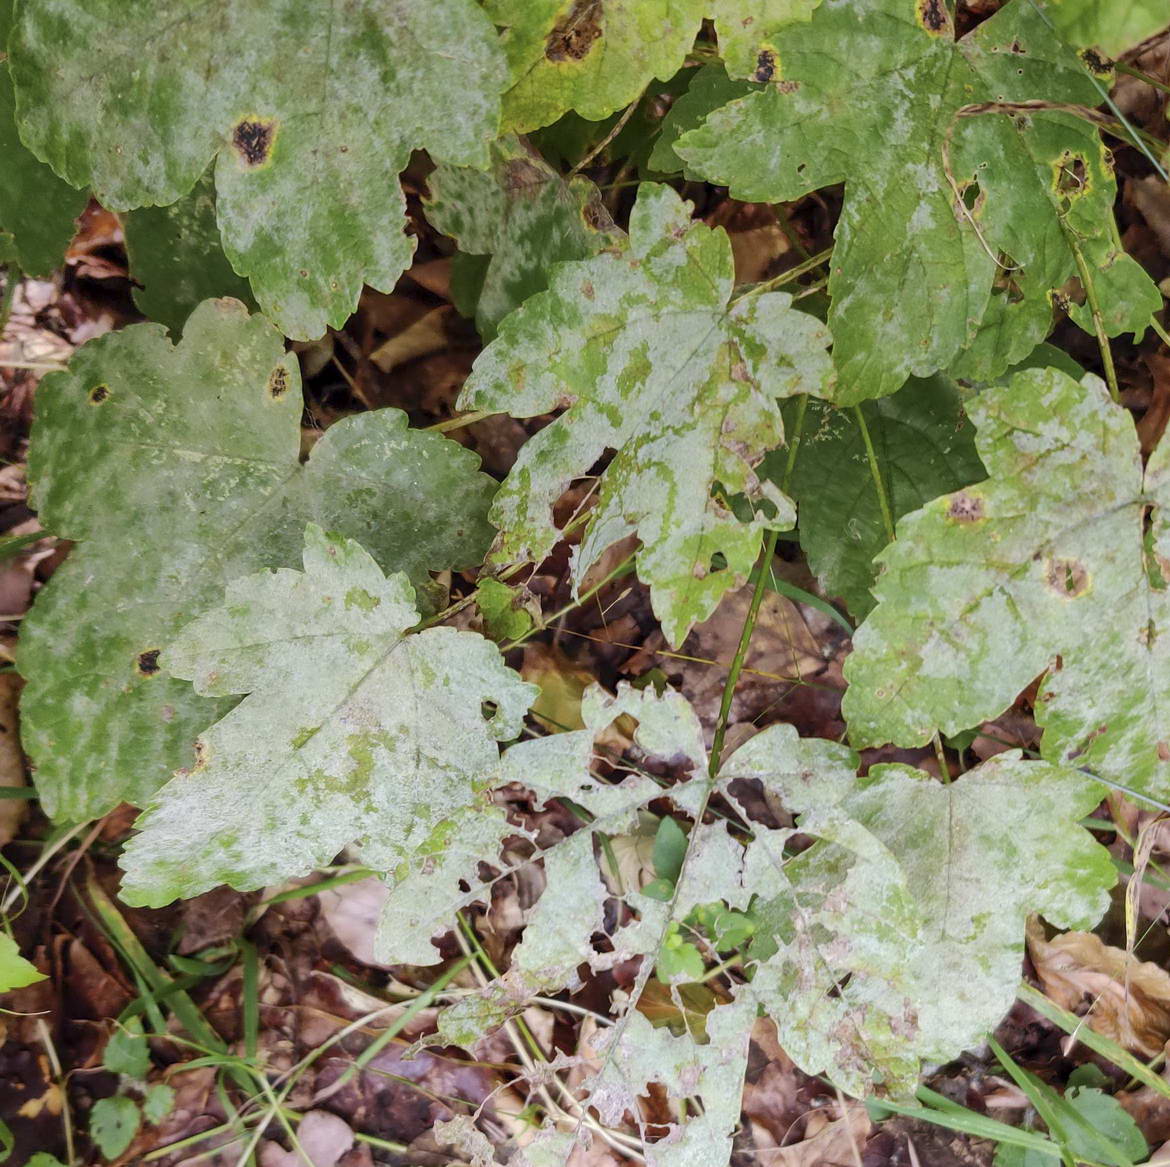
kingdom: Fungi
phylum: Ascomycota
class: Leotiomycetes
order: Helotiales
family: Erysiphaceae
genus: Sawadaea
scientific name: Sawadaea bicornis
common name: Maple mildew
